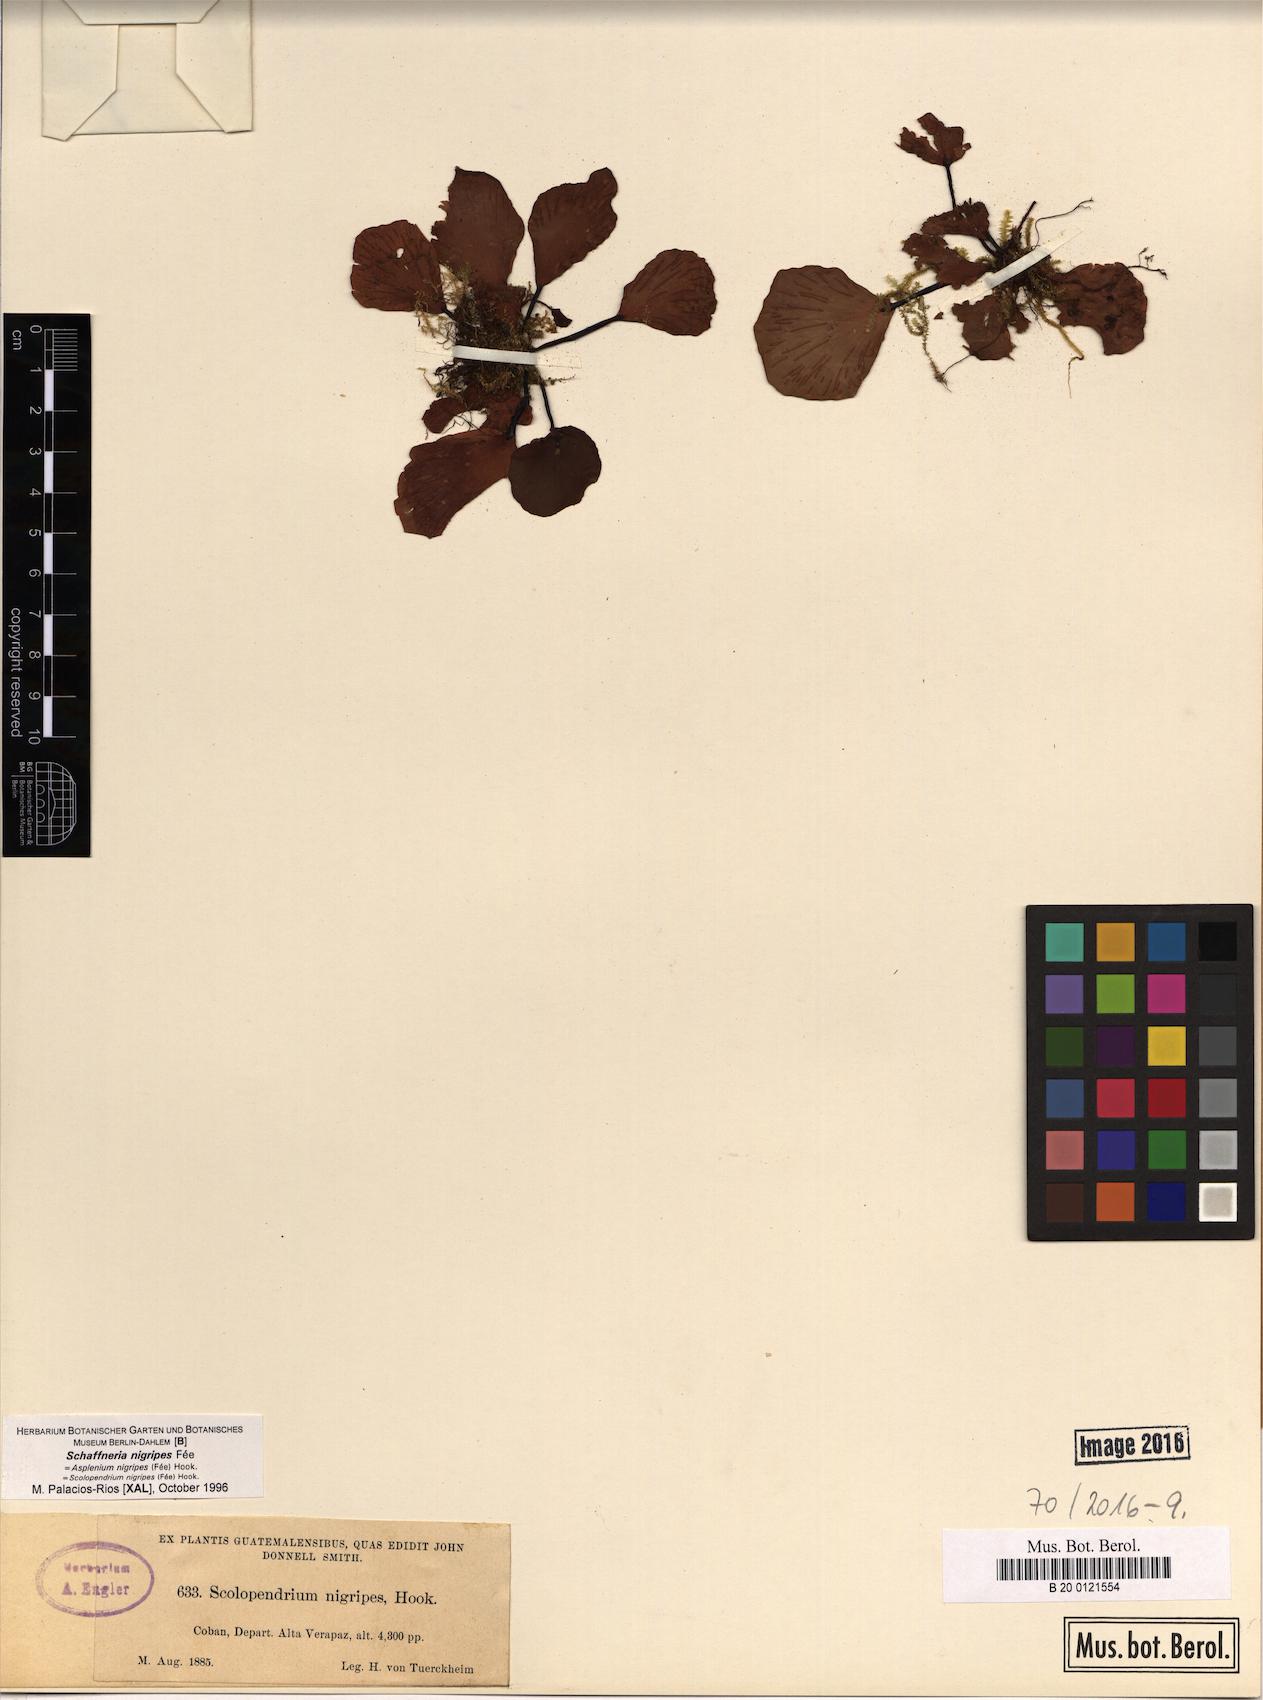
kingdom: Plantae
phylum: Tracheophyta
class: Polypodiopsida
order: Polypodiales
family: Aspleniaceae
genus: Asplenium
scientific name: Asplenium nigripes
